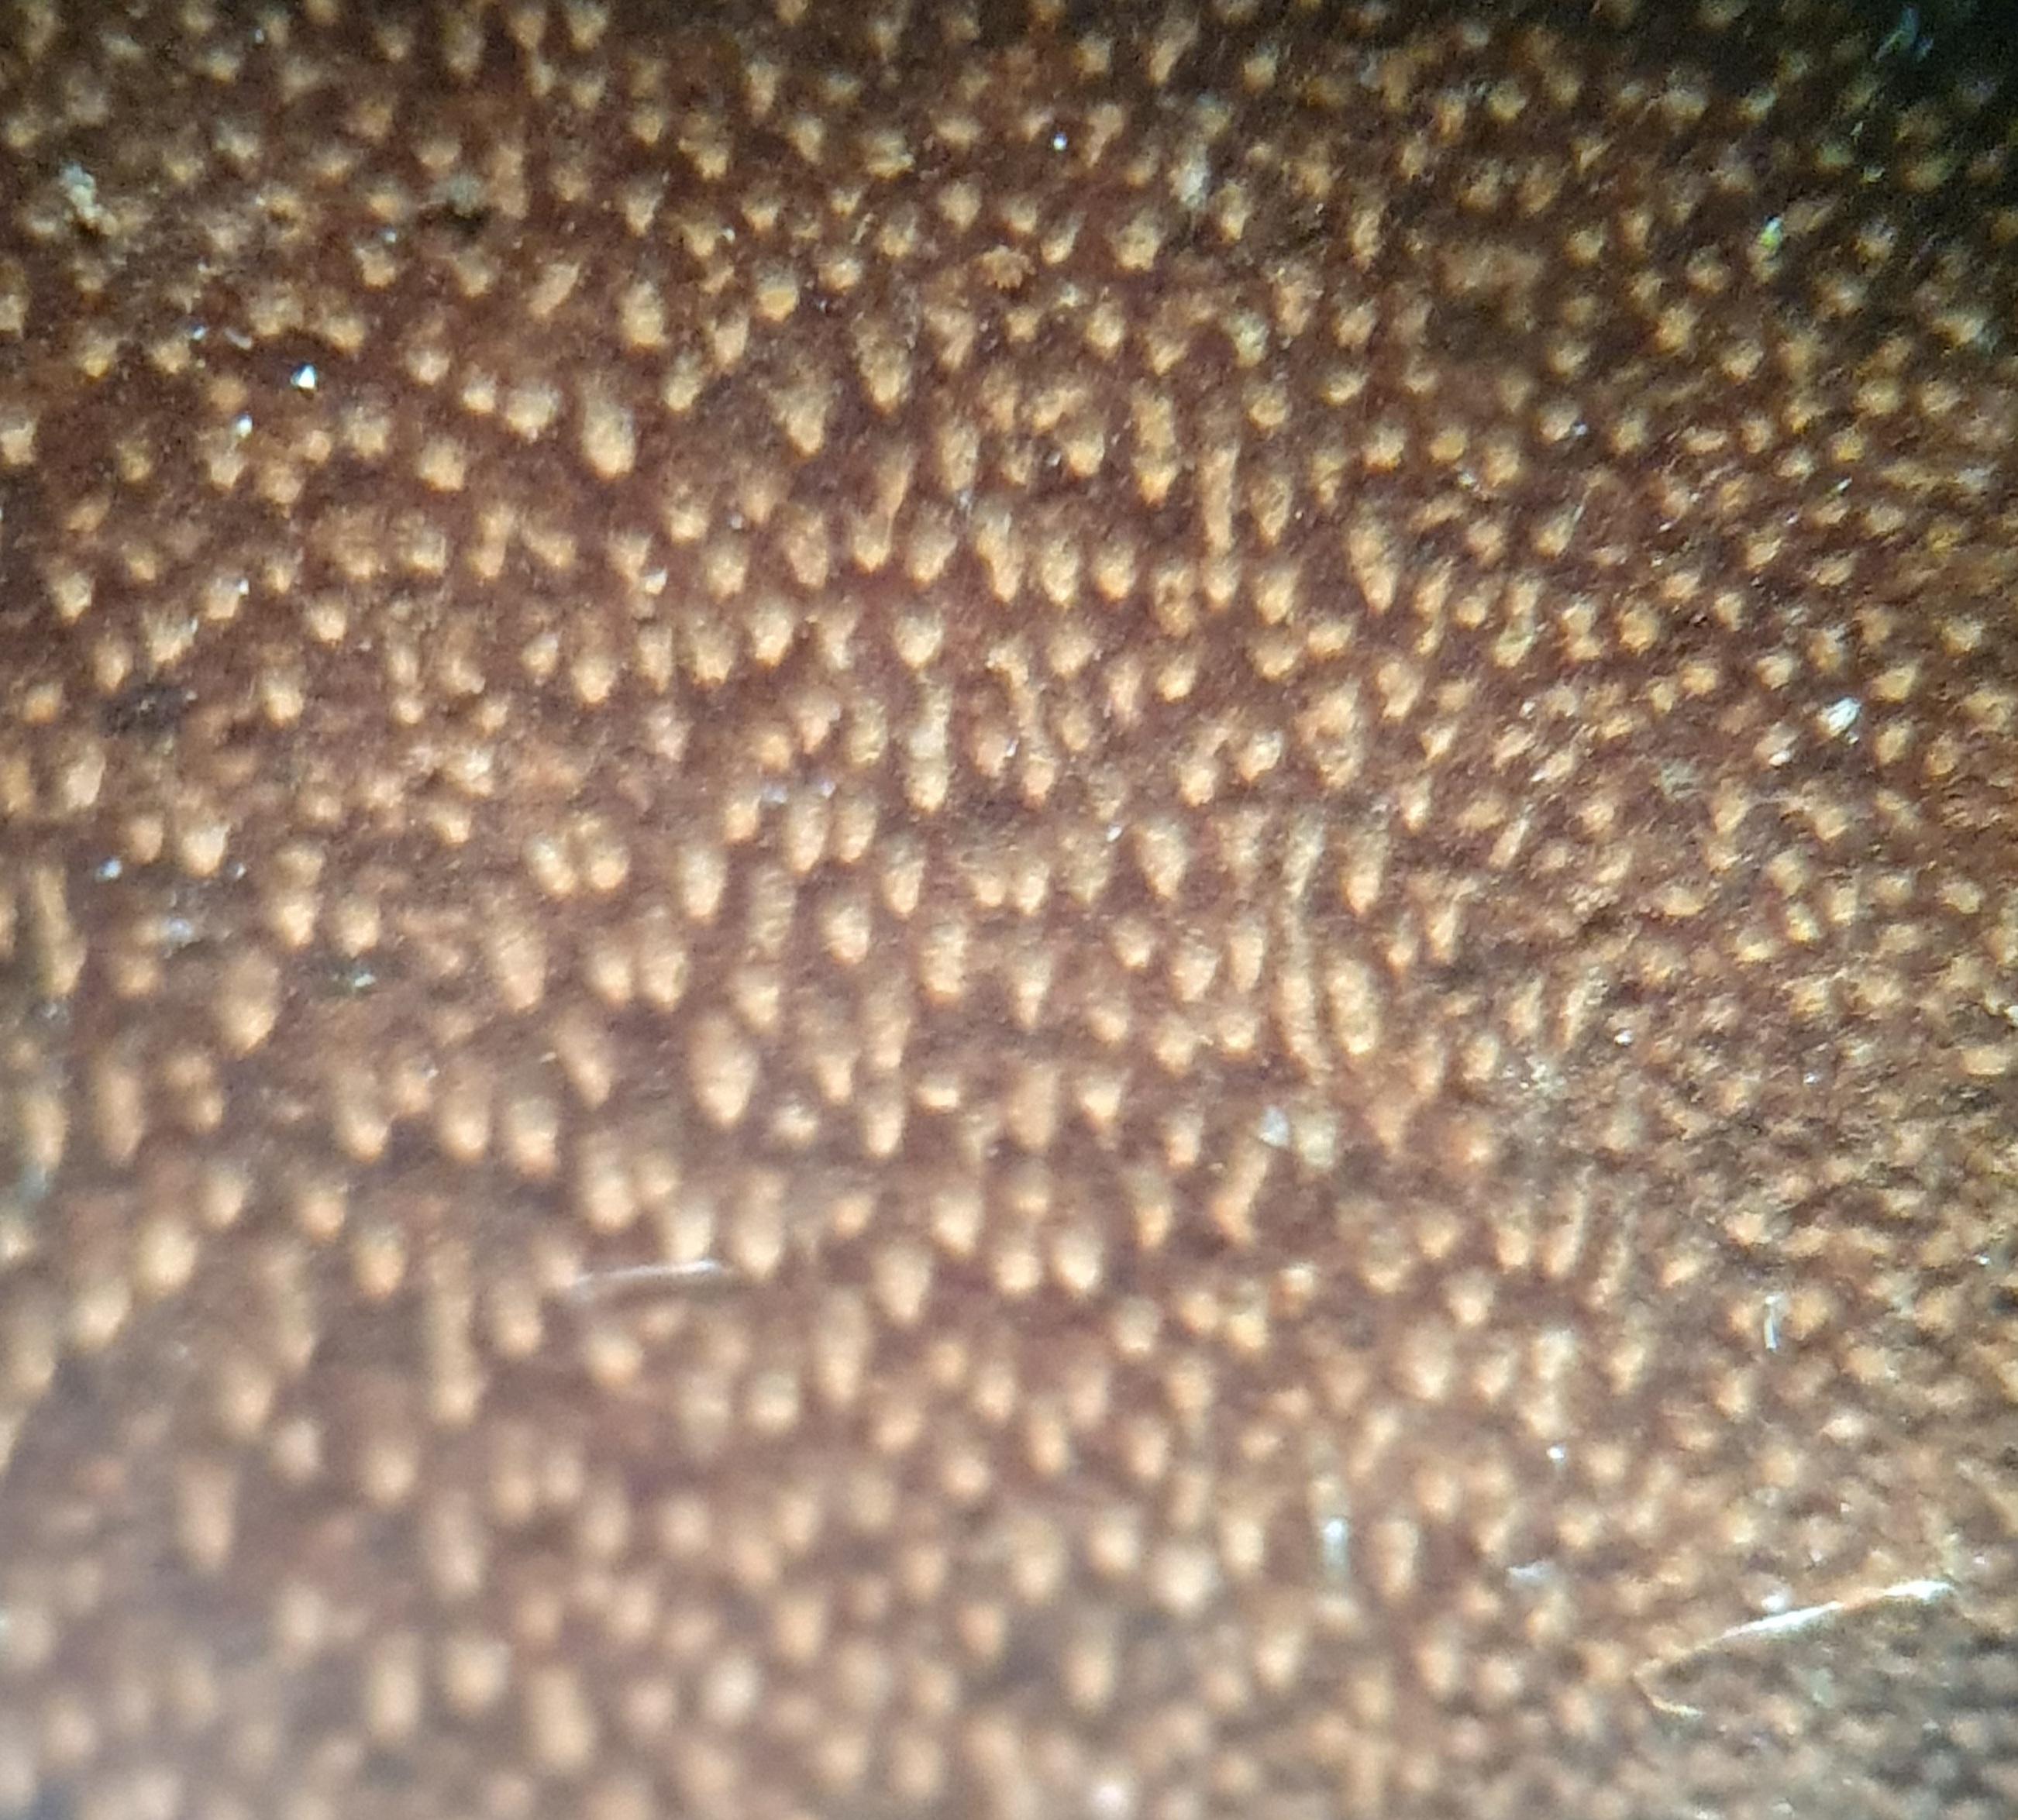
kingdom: Fungi
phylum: Basidiomycota
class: Agaricomycetes
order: Hymenochaetales
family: Hymenochaetaceae
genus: Fomitiporia
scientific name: Fomitiporia punctata
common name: pude-ildporesvamp
